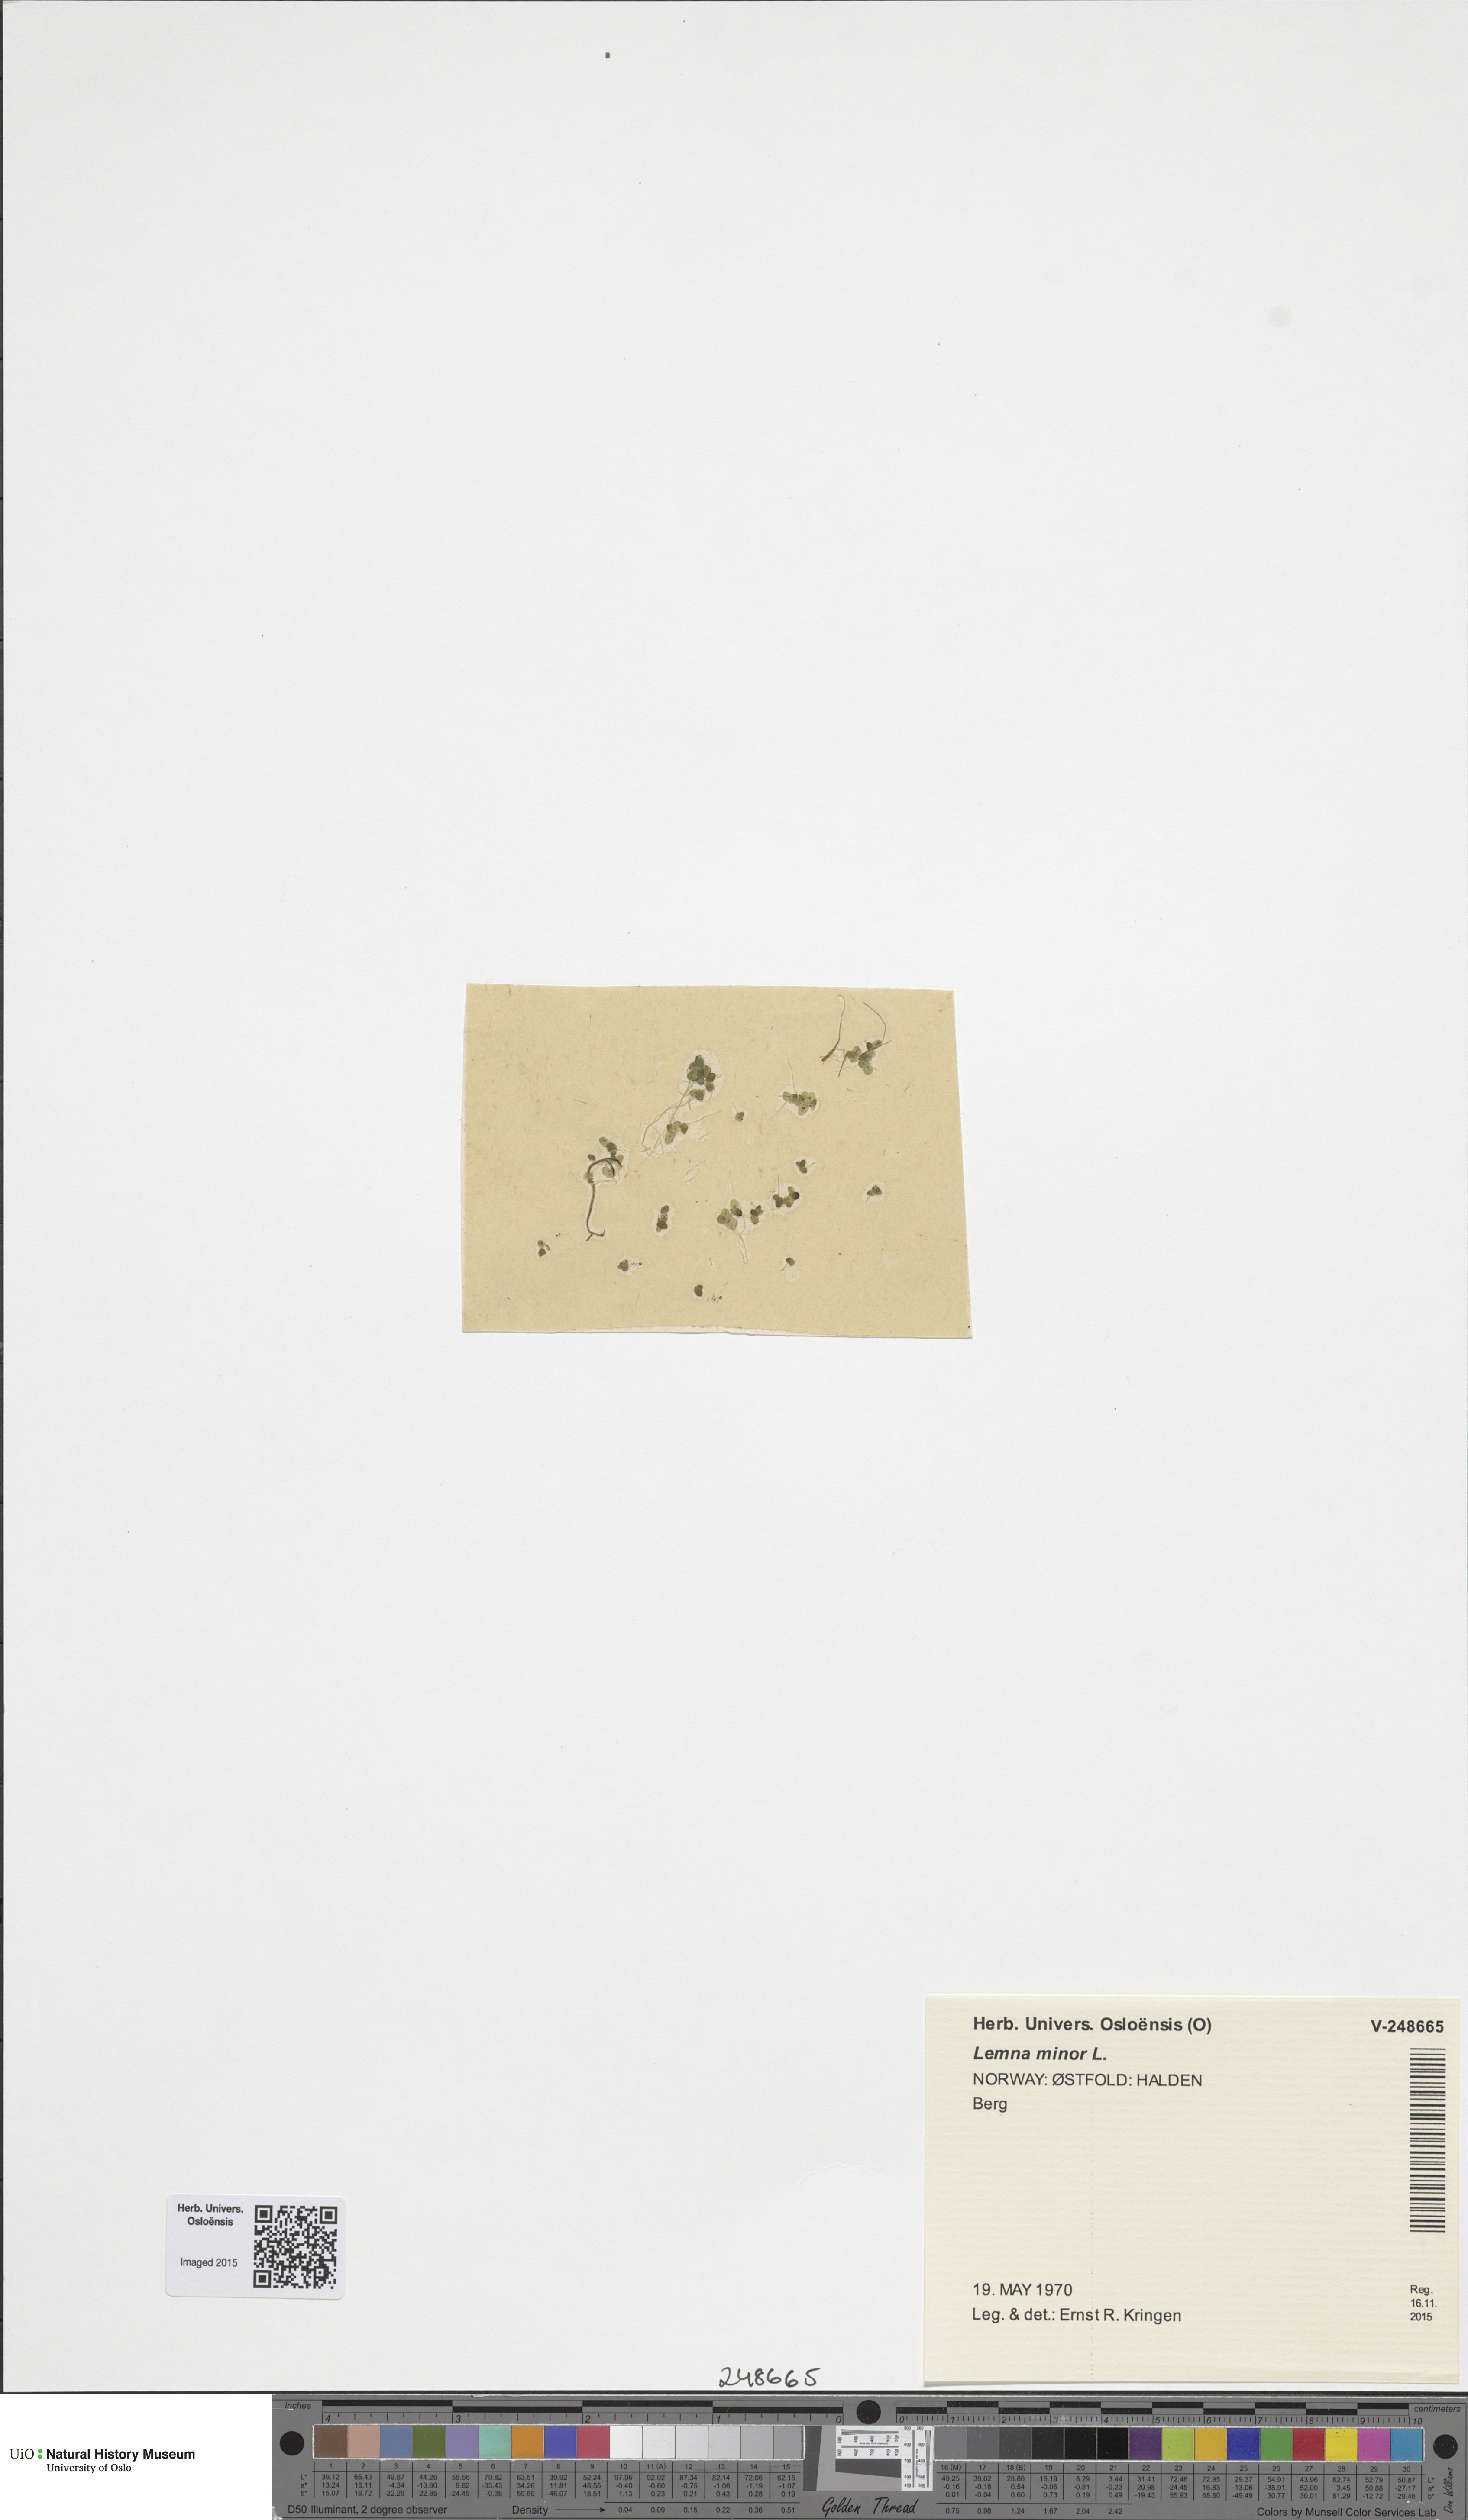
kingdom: Plantae
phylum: Tracheophyta
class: Liliopsida
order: Alismatales
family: Araceae
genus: Lemna
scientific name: Lemna minor
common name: Common duckweed
